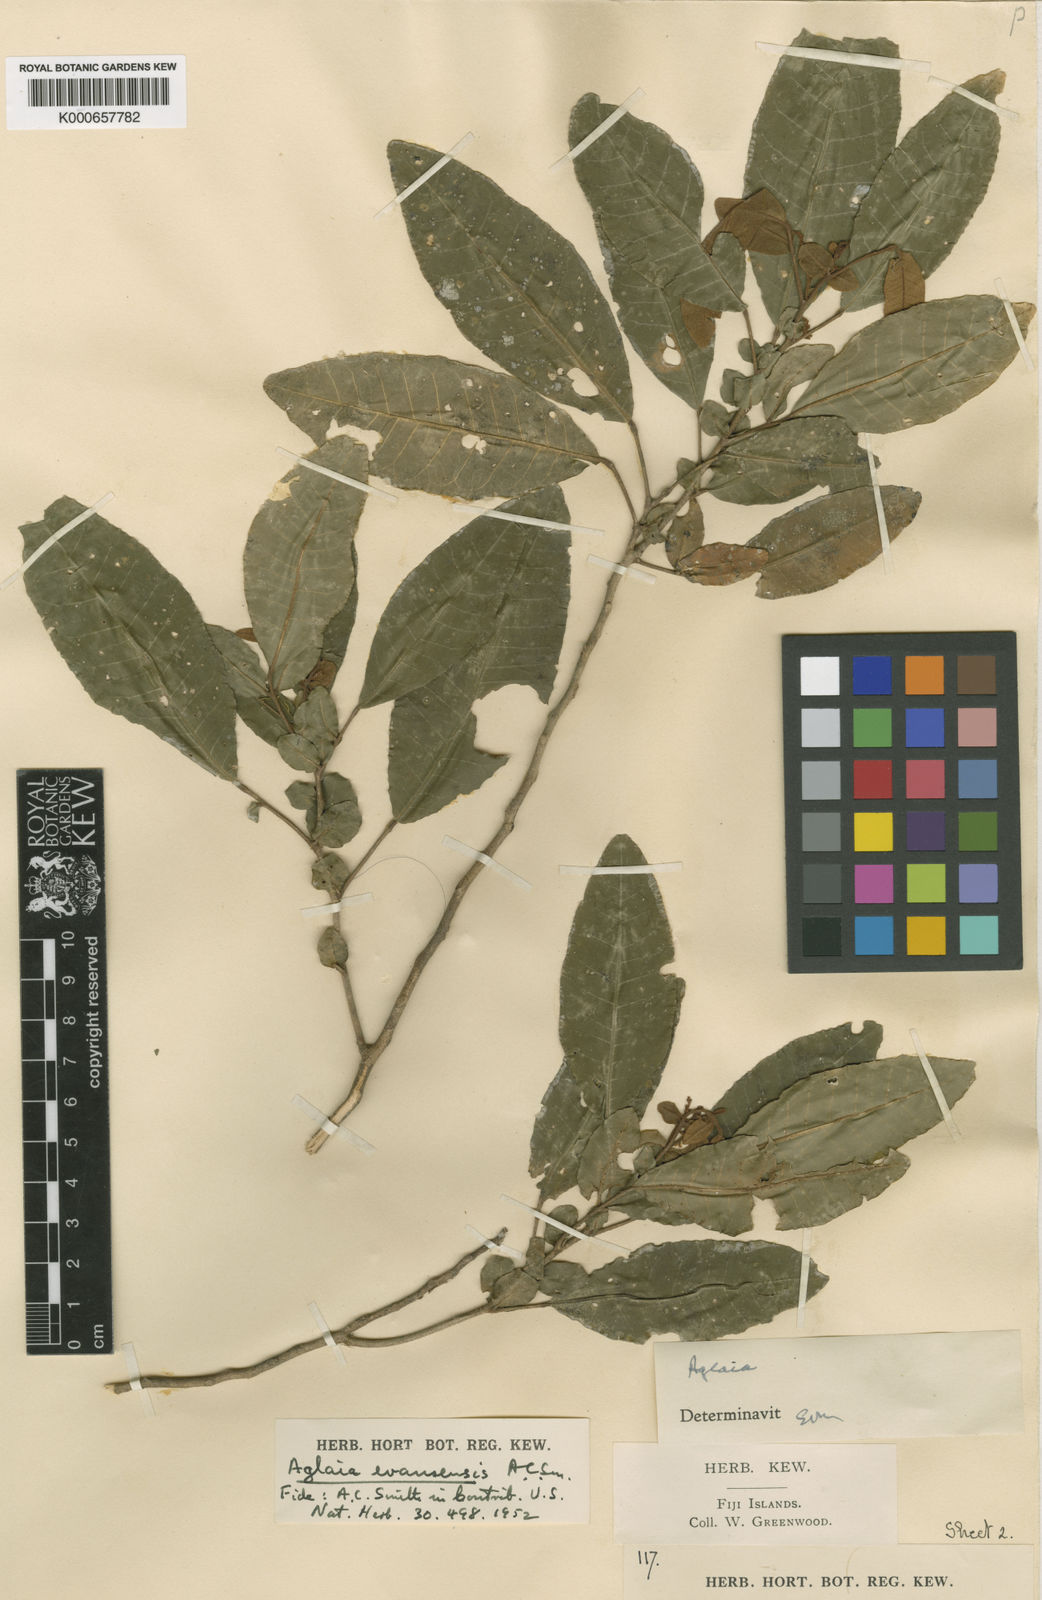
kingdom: Plantae
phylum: Tracheophyta
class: Magnoliopsida
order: Sapindales
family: Meliaceae
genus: Aglaia
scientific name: Aglaia evansensis
